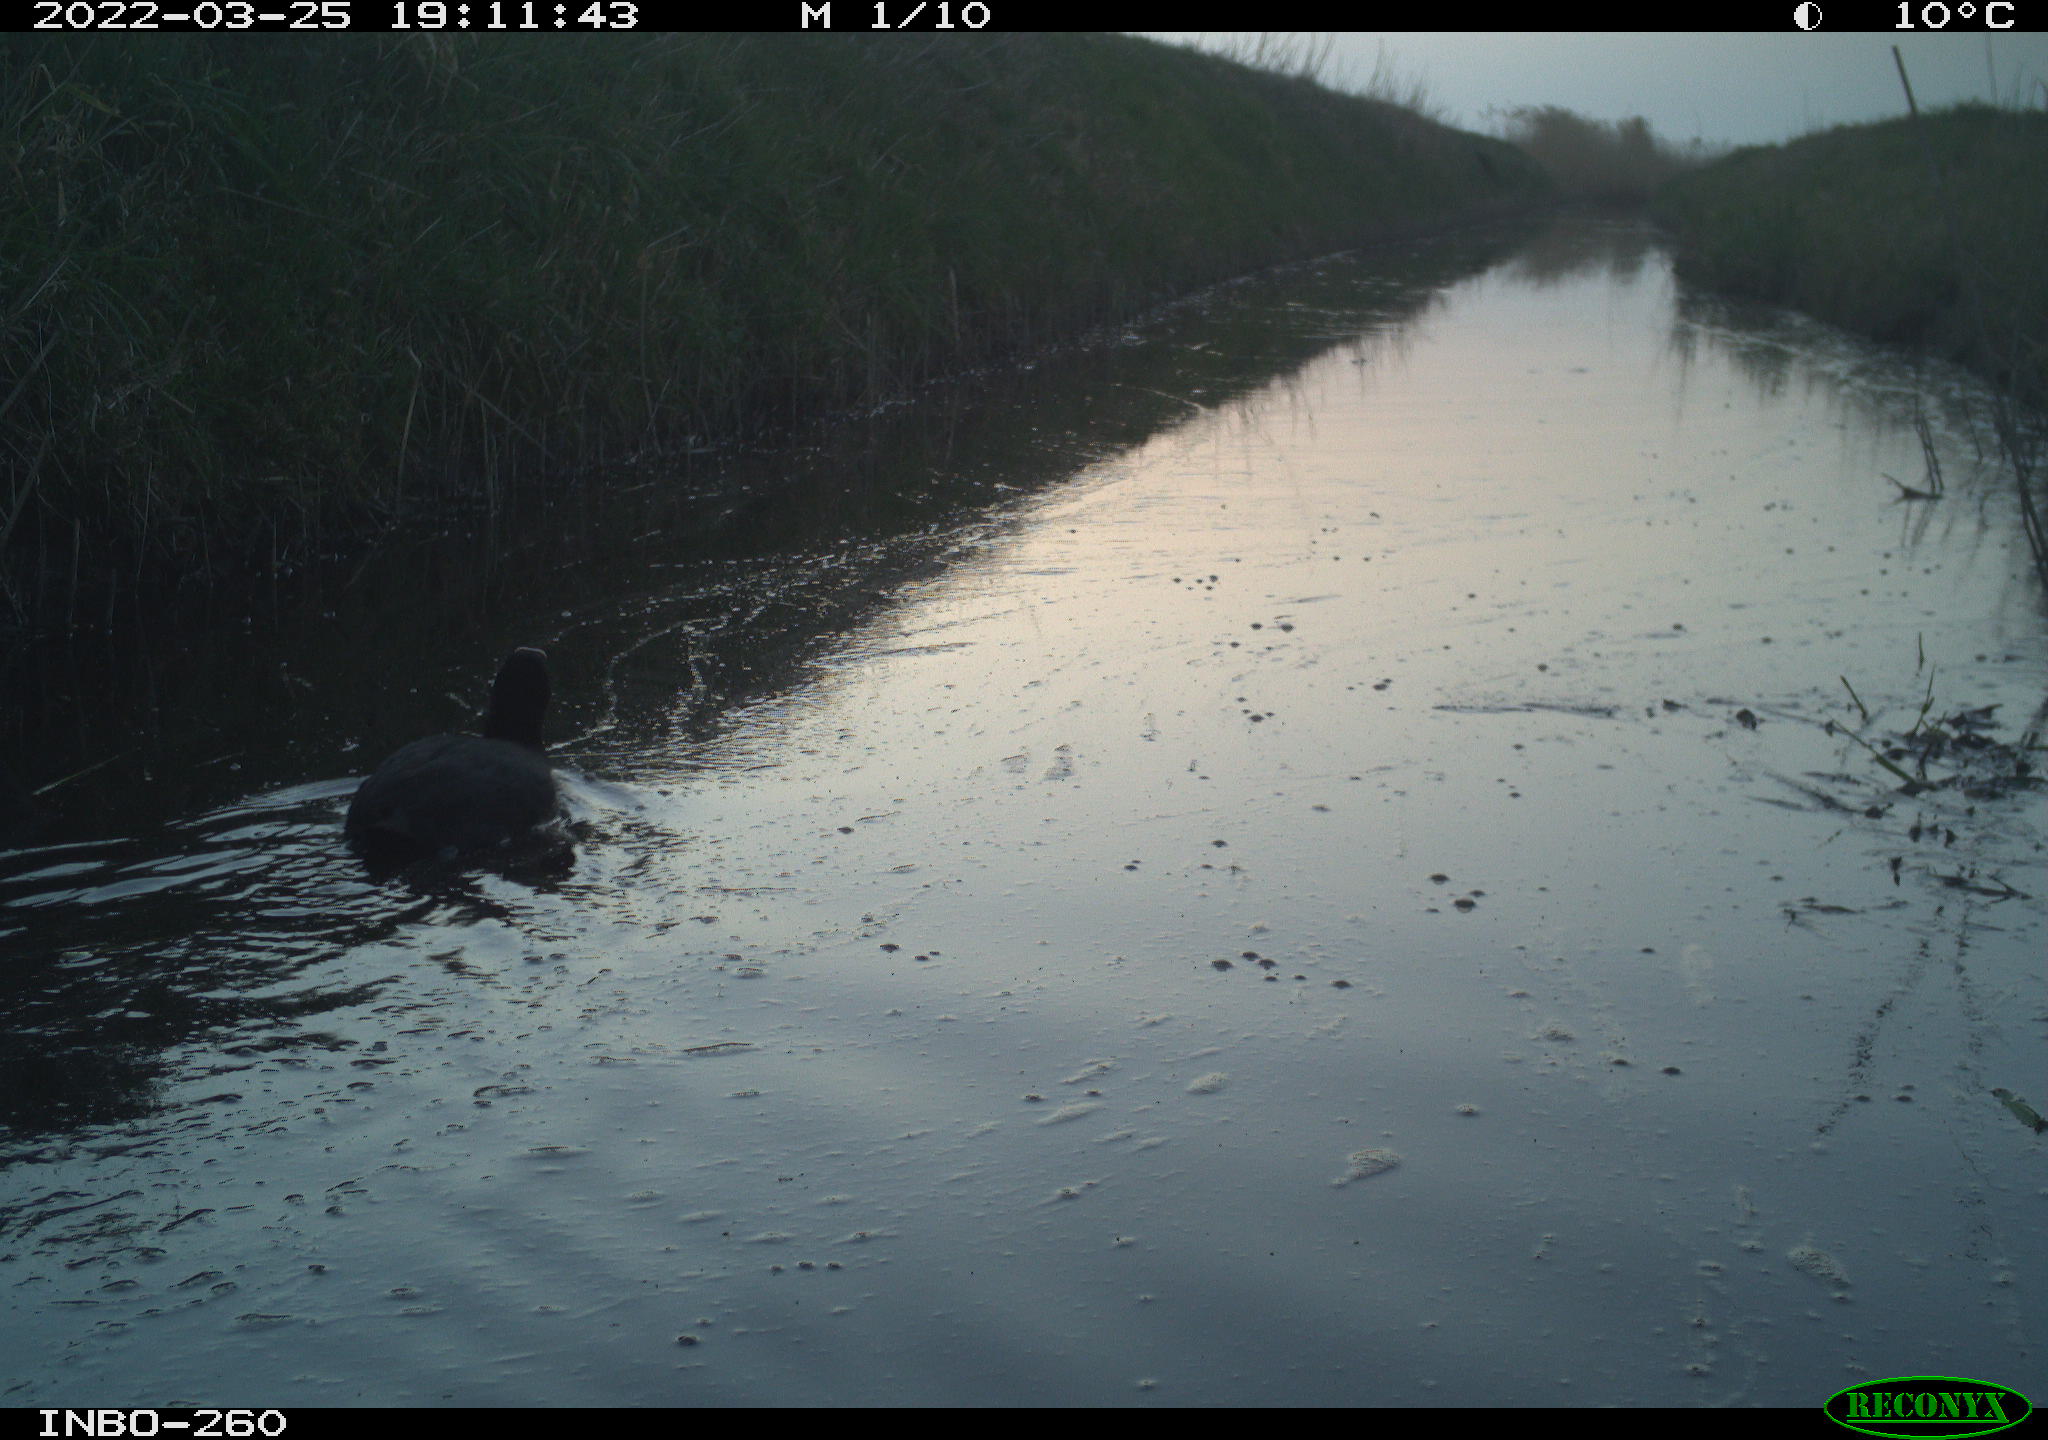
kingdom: Animalia
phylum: Chordata
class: Aves
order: Gruiformes
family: Rallidae
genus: Fulica
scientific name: Fulica atra
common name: Eurasian coot
